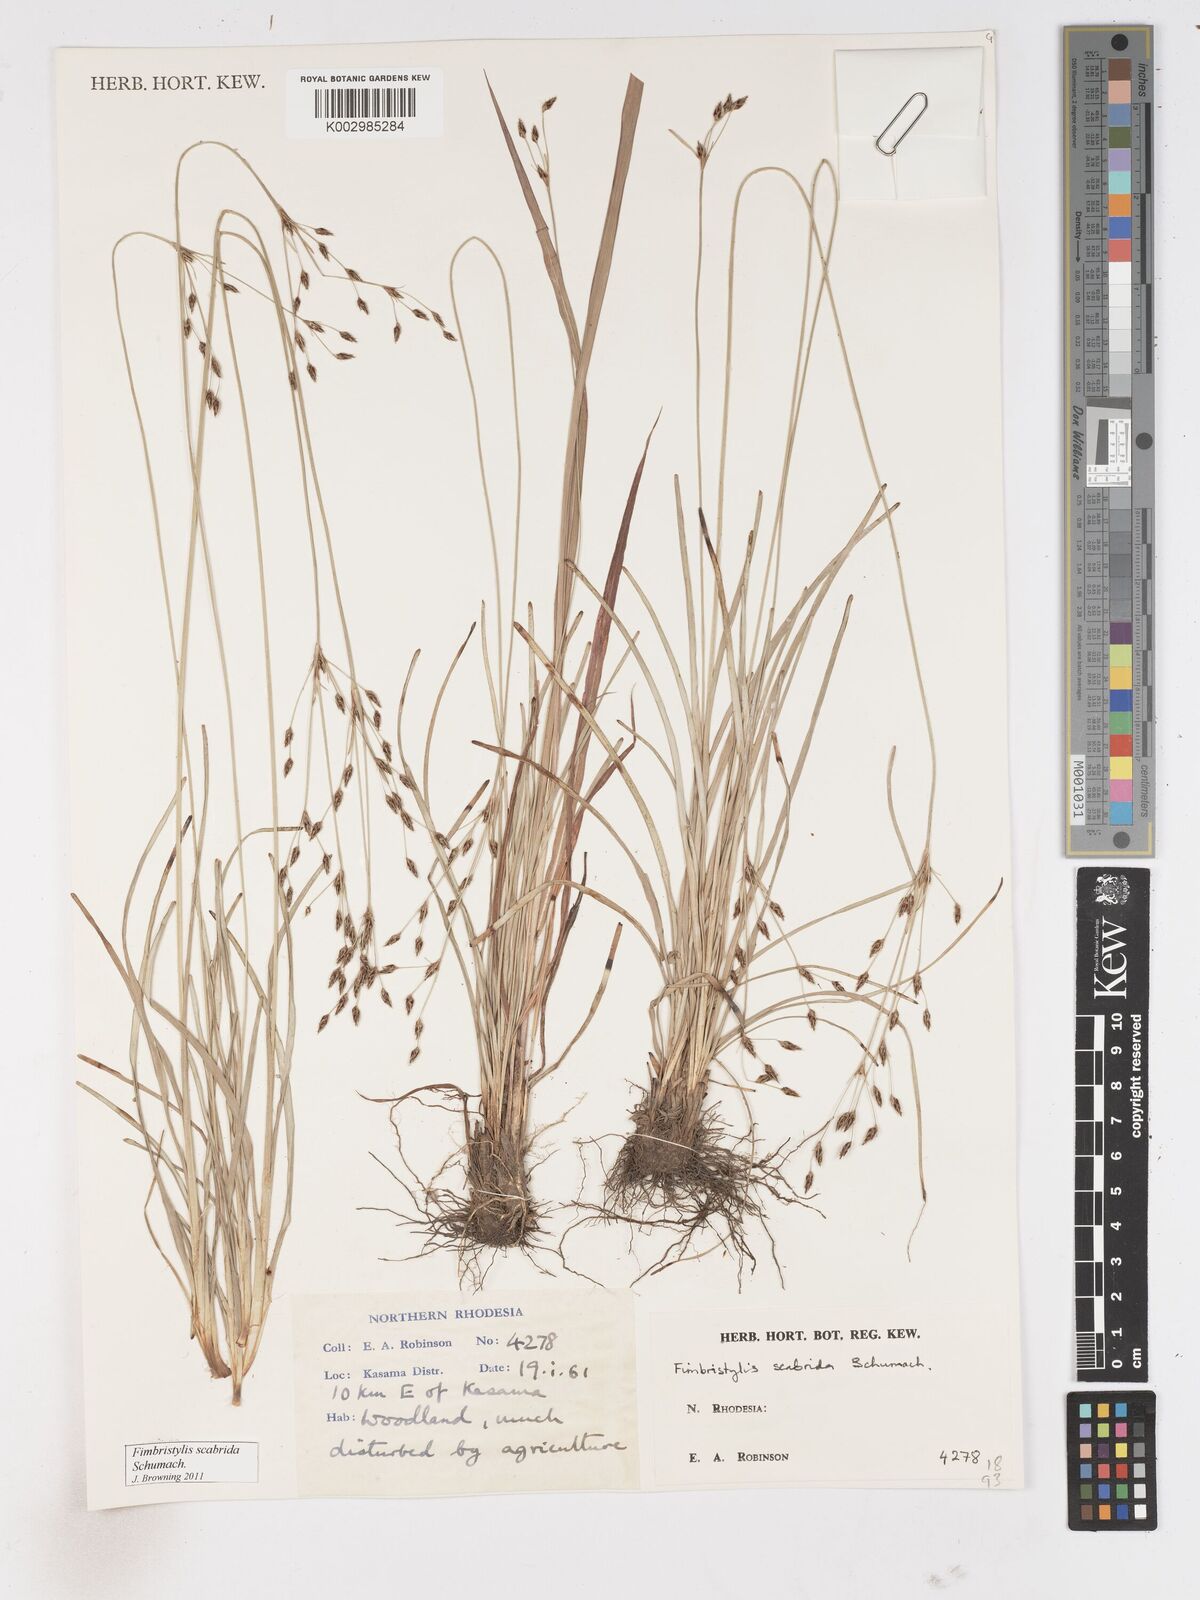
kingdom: Plantae
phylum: Tracheophyta
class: Liliopsida
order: Poales
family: Cyperaceae
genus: Fimbristylis
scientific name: Fimbristylis scabrida
